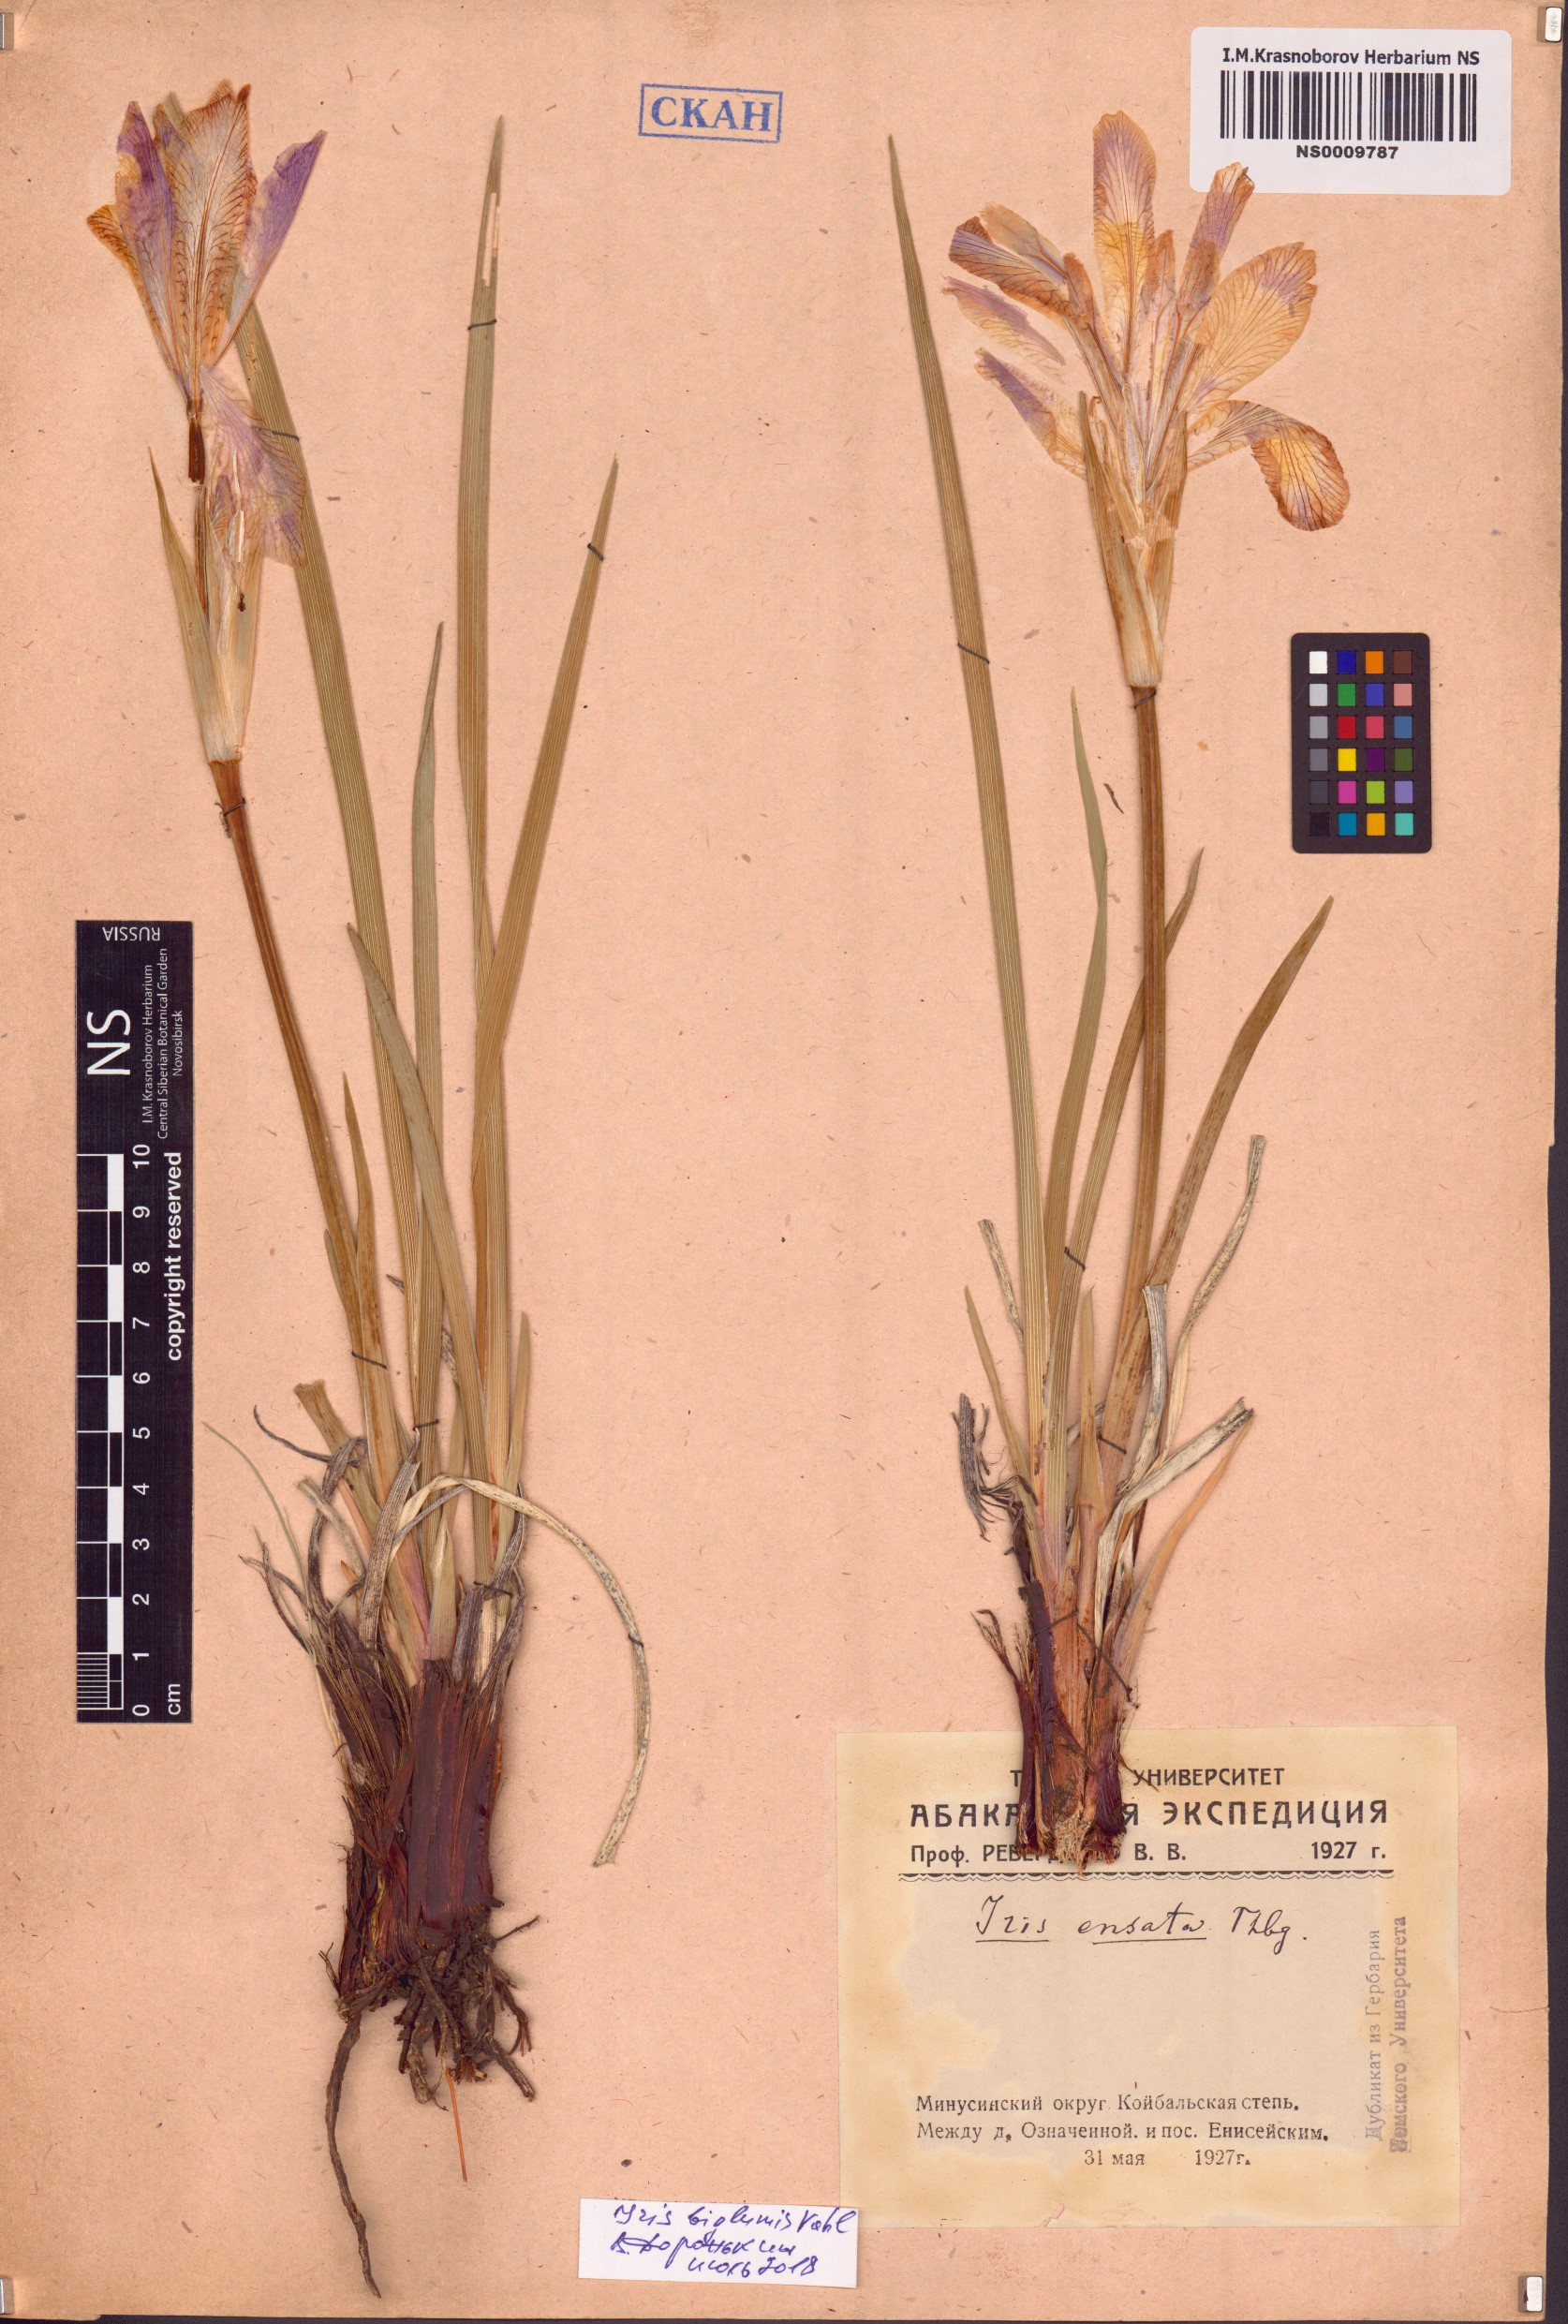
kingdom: Plantae
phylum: Tracheophyta
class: Liliopsida
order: Asparagales
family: Iridaceae
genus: Iris
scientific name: Iris lactea
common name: White-flower chinese iris
